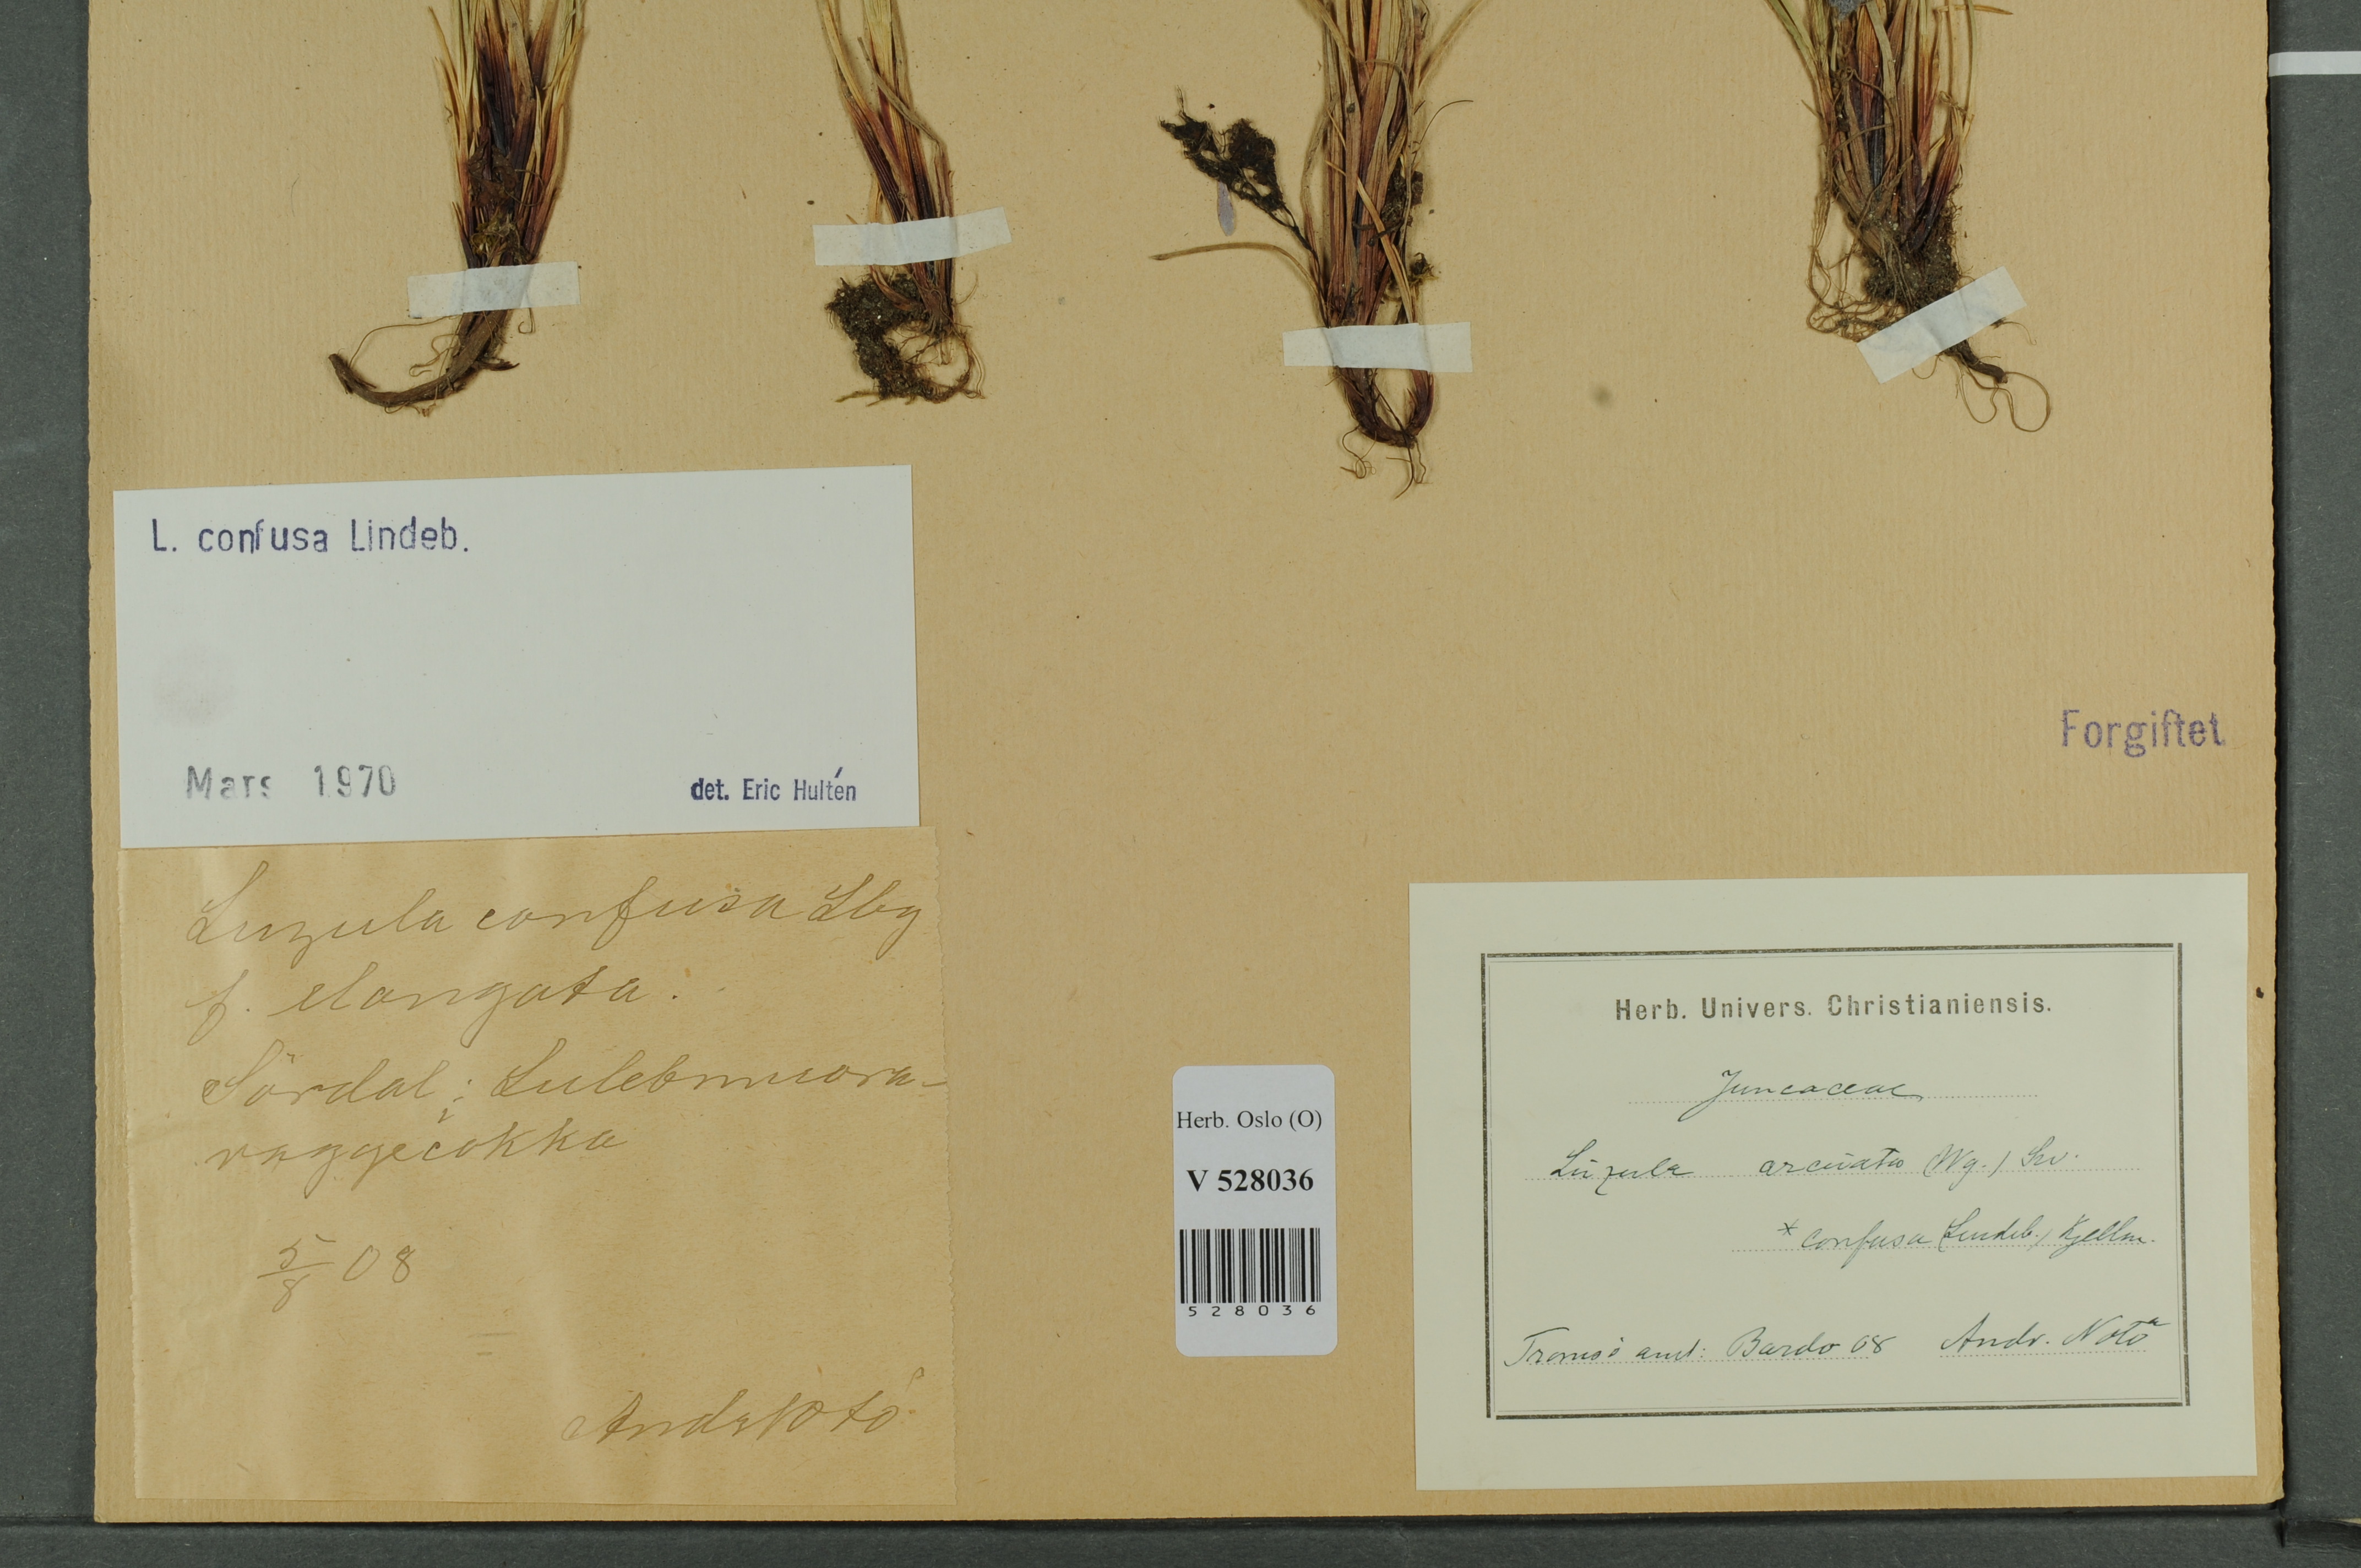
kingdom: Plantae
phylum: Tracheophyta
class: Liliopsida
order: Poales
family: Juncaceae
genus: Luzula
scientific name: Luzula confusa
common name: Northern wood rush
